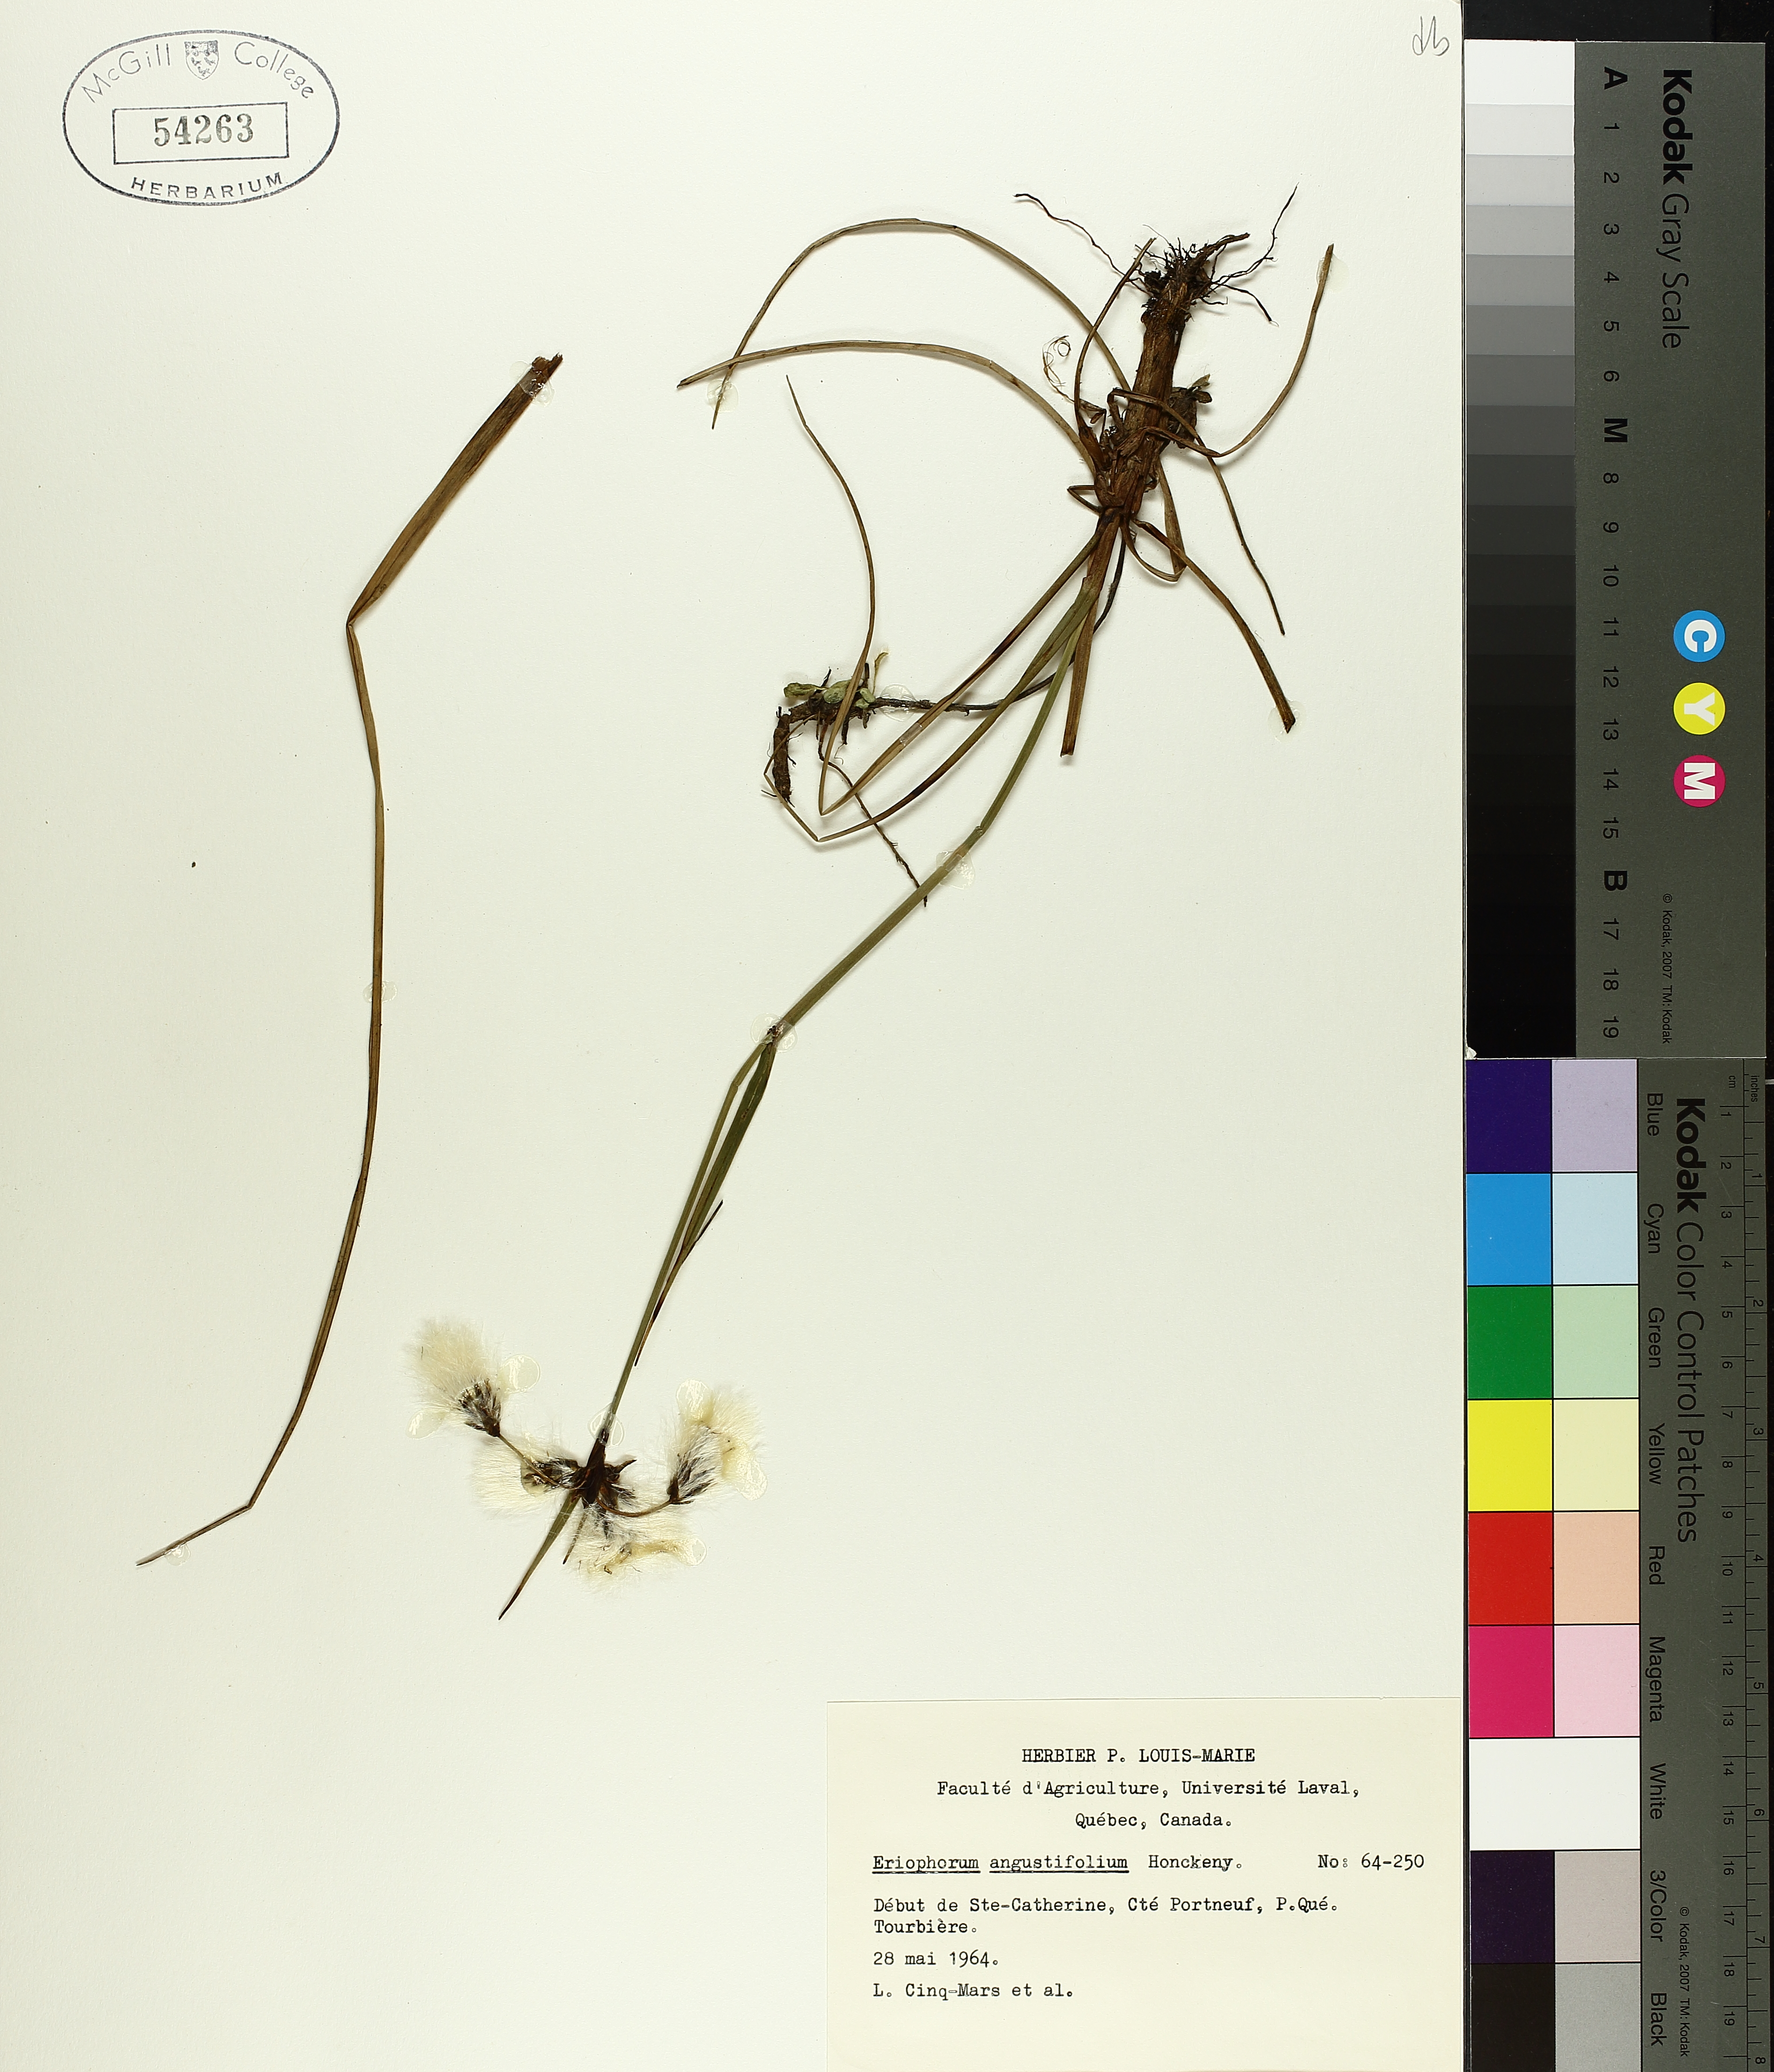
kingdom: Plantae
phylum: Tracheophyta
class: Liliopsida
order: Poales
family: Cyperaceae
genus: Eriophorum
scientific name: Eriophorum triste
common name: Tall cottongrass
